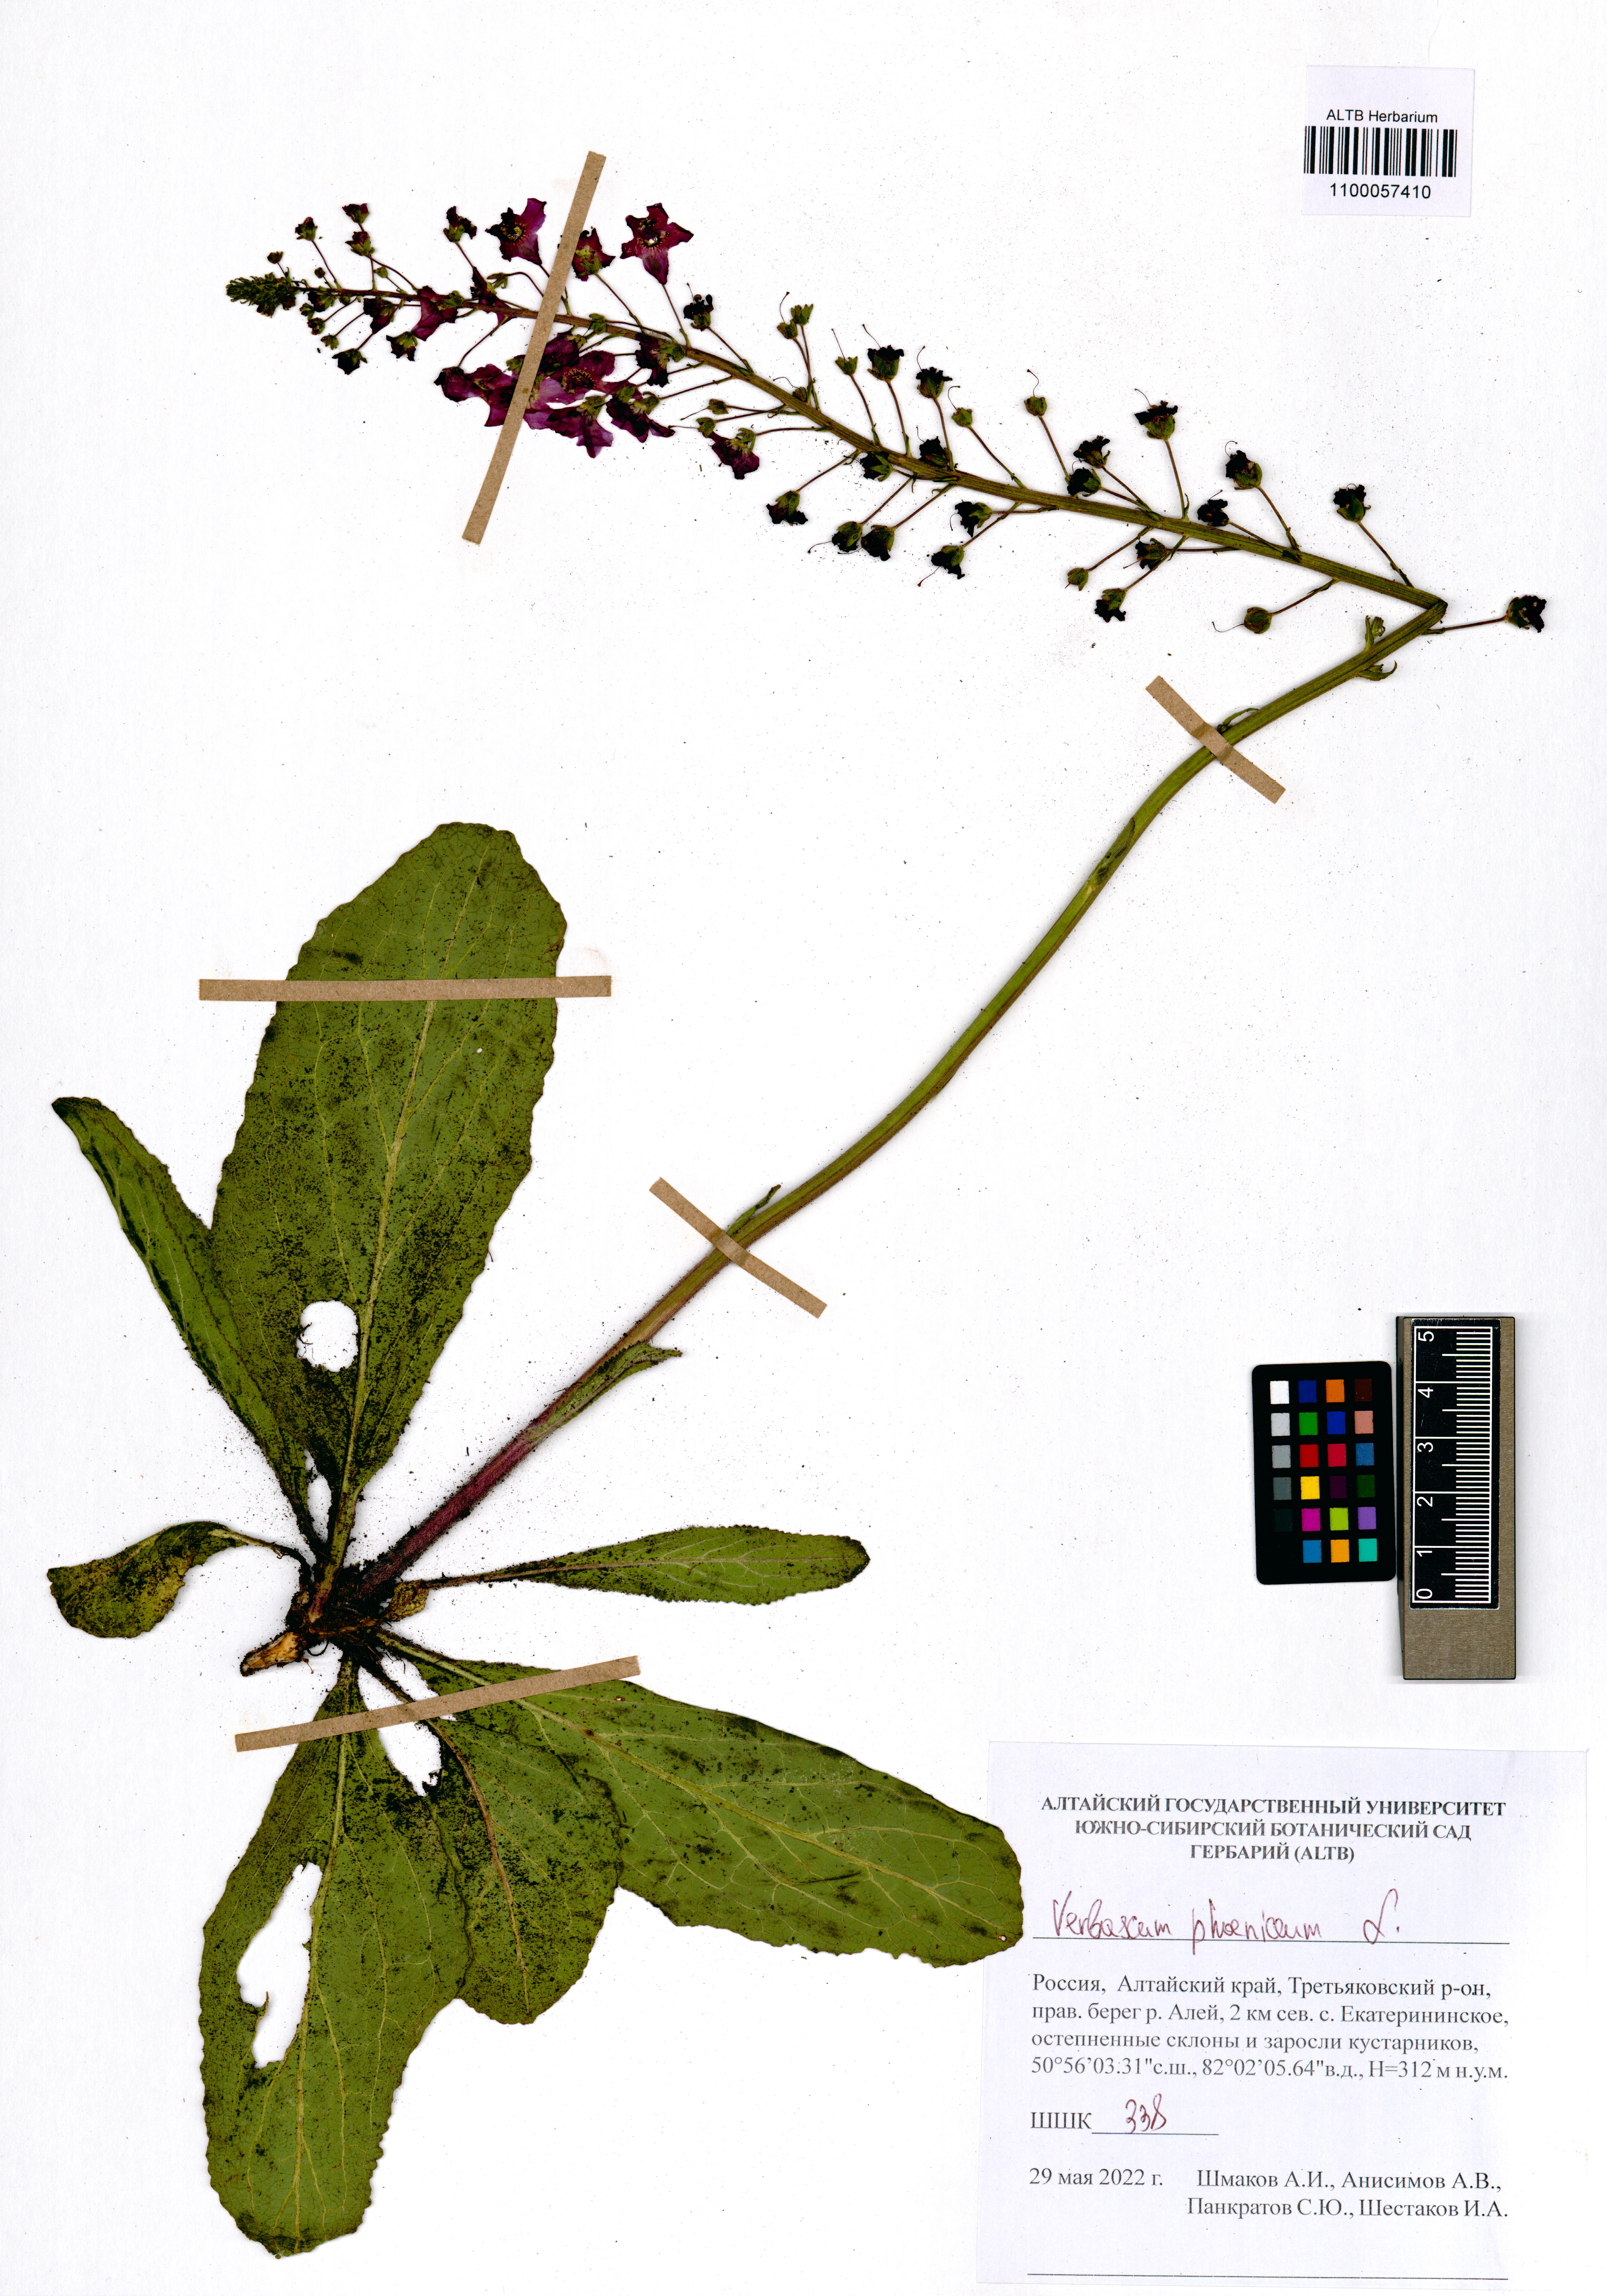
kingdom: Plantae
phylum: Tracheophyta
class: Magnoliopsida
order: Lamiales
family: Scrophulariaceae
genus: Verbascum
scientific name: Verbascum phoeniceum
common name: Purple mullein
